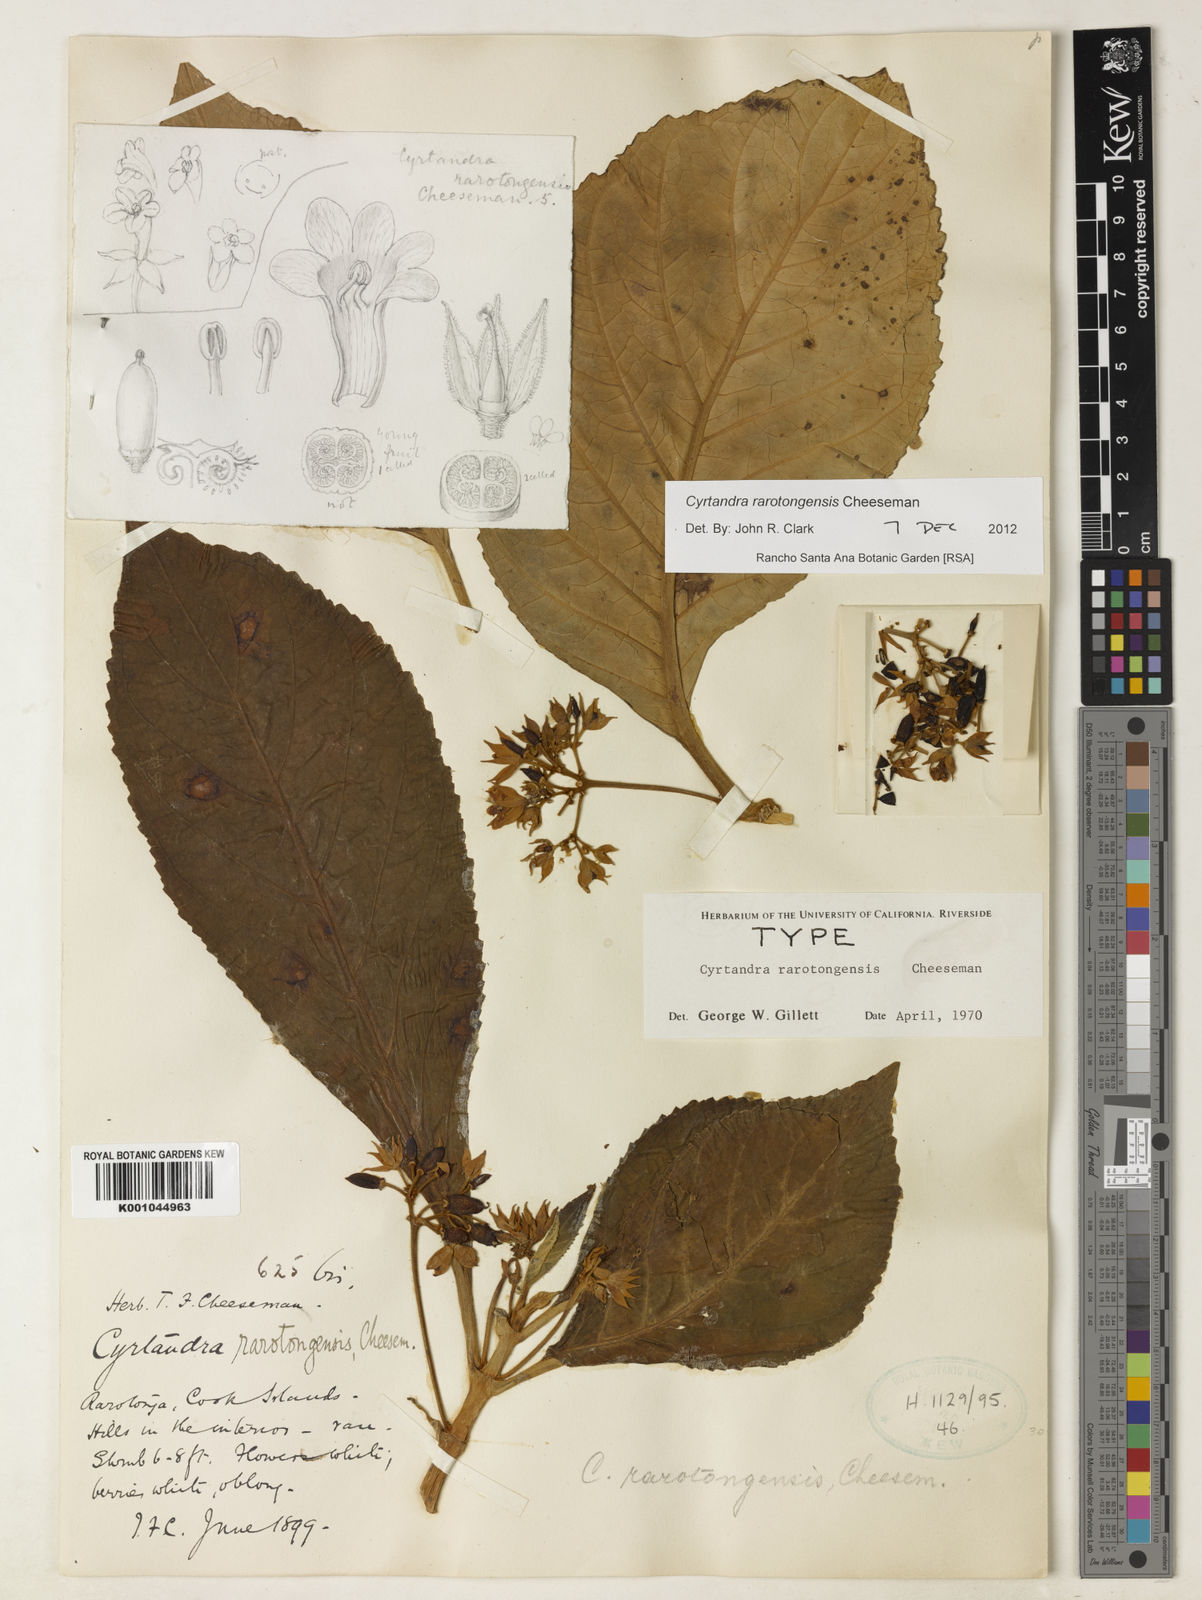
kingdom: Plantae
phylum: Tracheophyta
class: Magnoliopsida
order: Lamiales
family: Gesneriaceae
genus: Cyrtandra
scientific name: Cyrtandra rarotongensis
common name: Rarotonga cyrtandra
